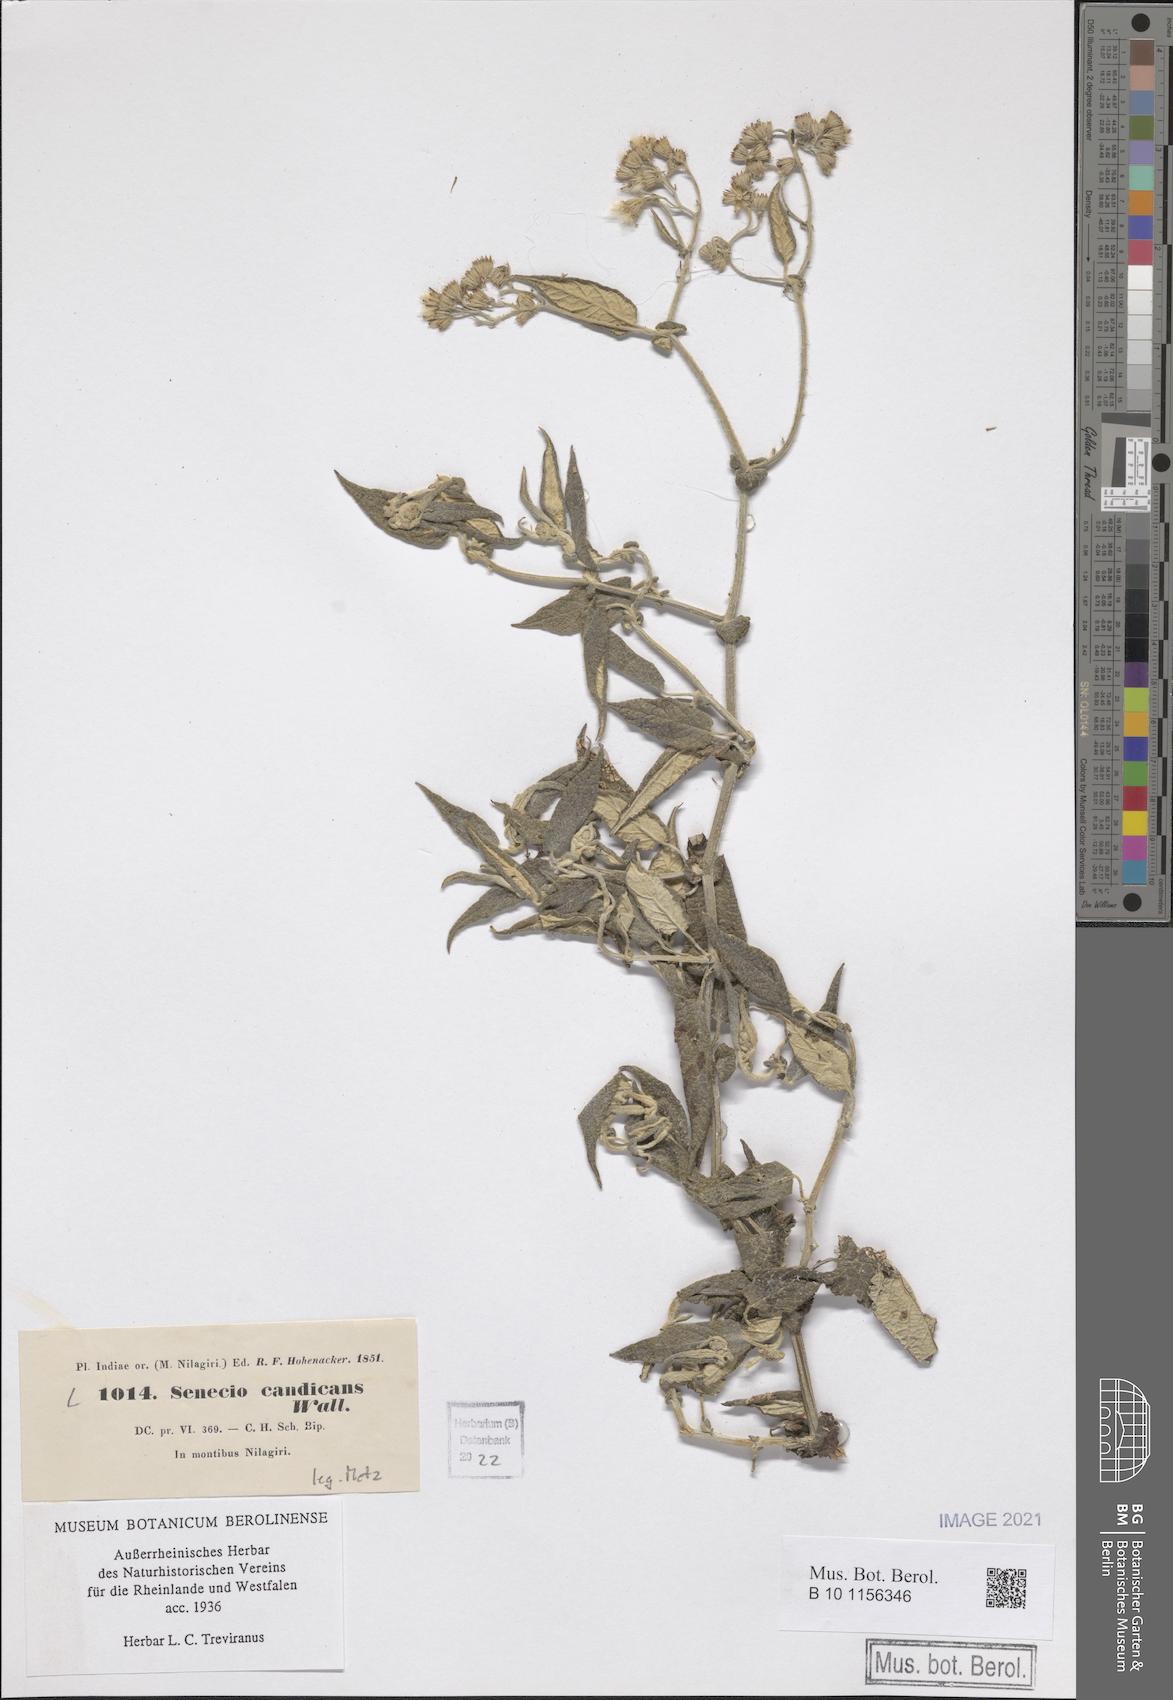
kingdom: Plantae
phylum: Tracheophyta
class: Magnoliopsida
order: Asterales
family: Asteraceae
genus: Senecio
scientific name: Senecio candicans
